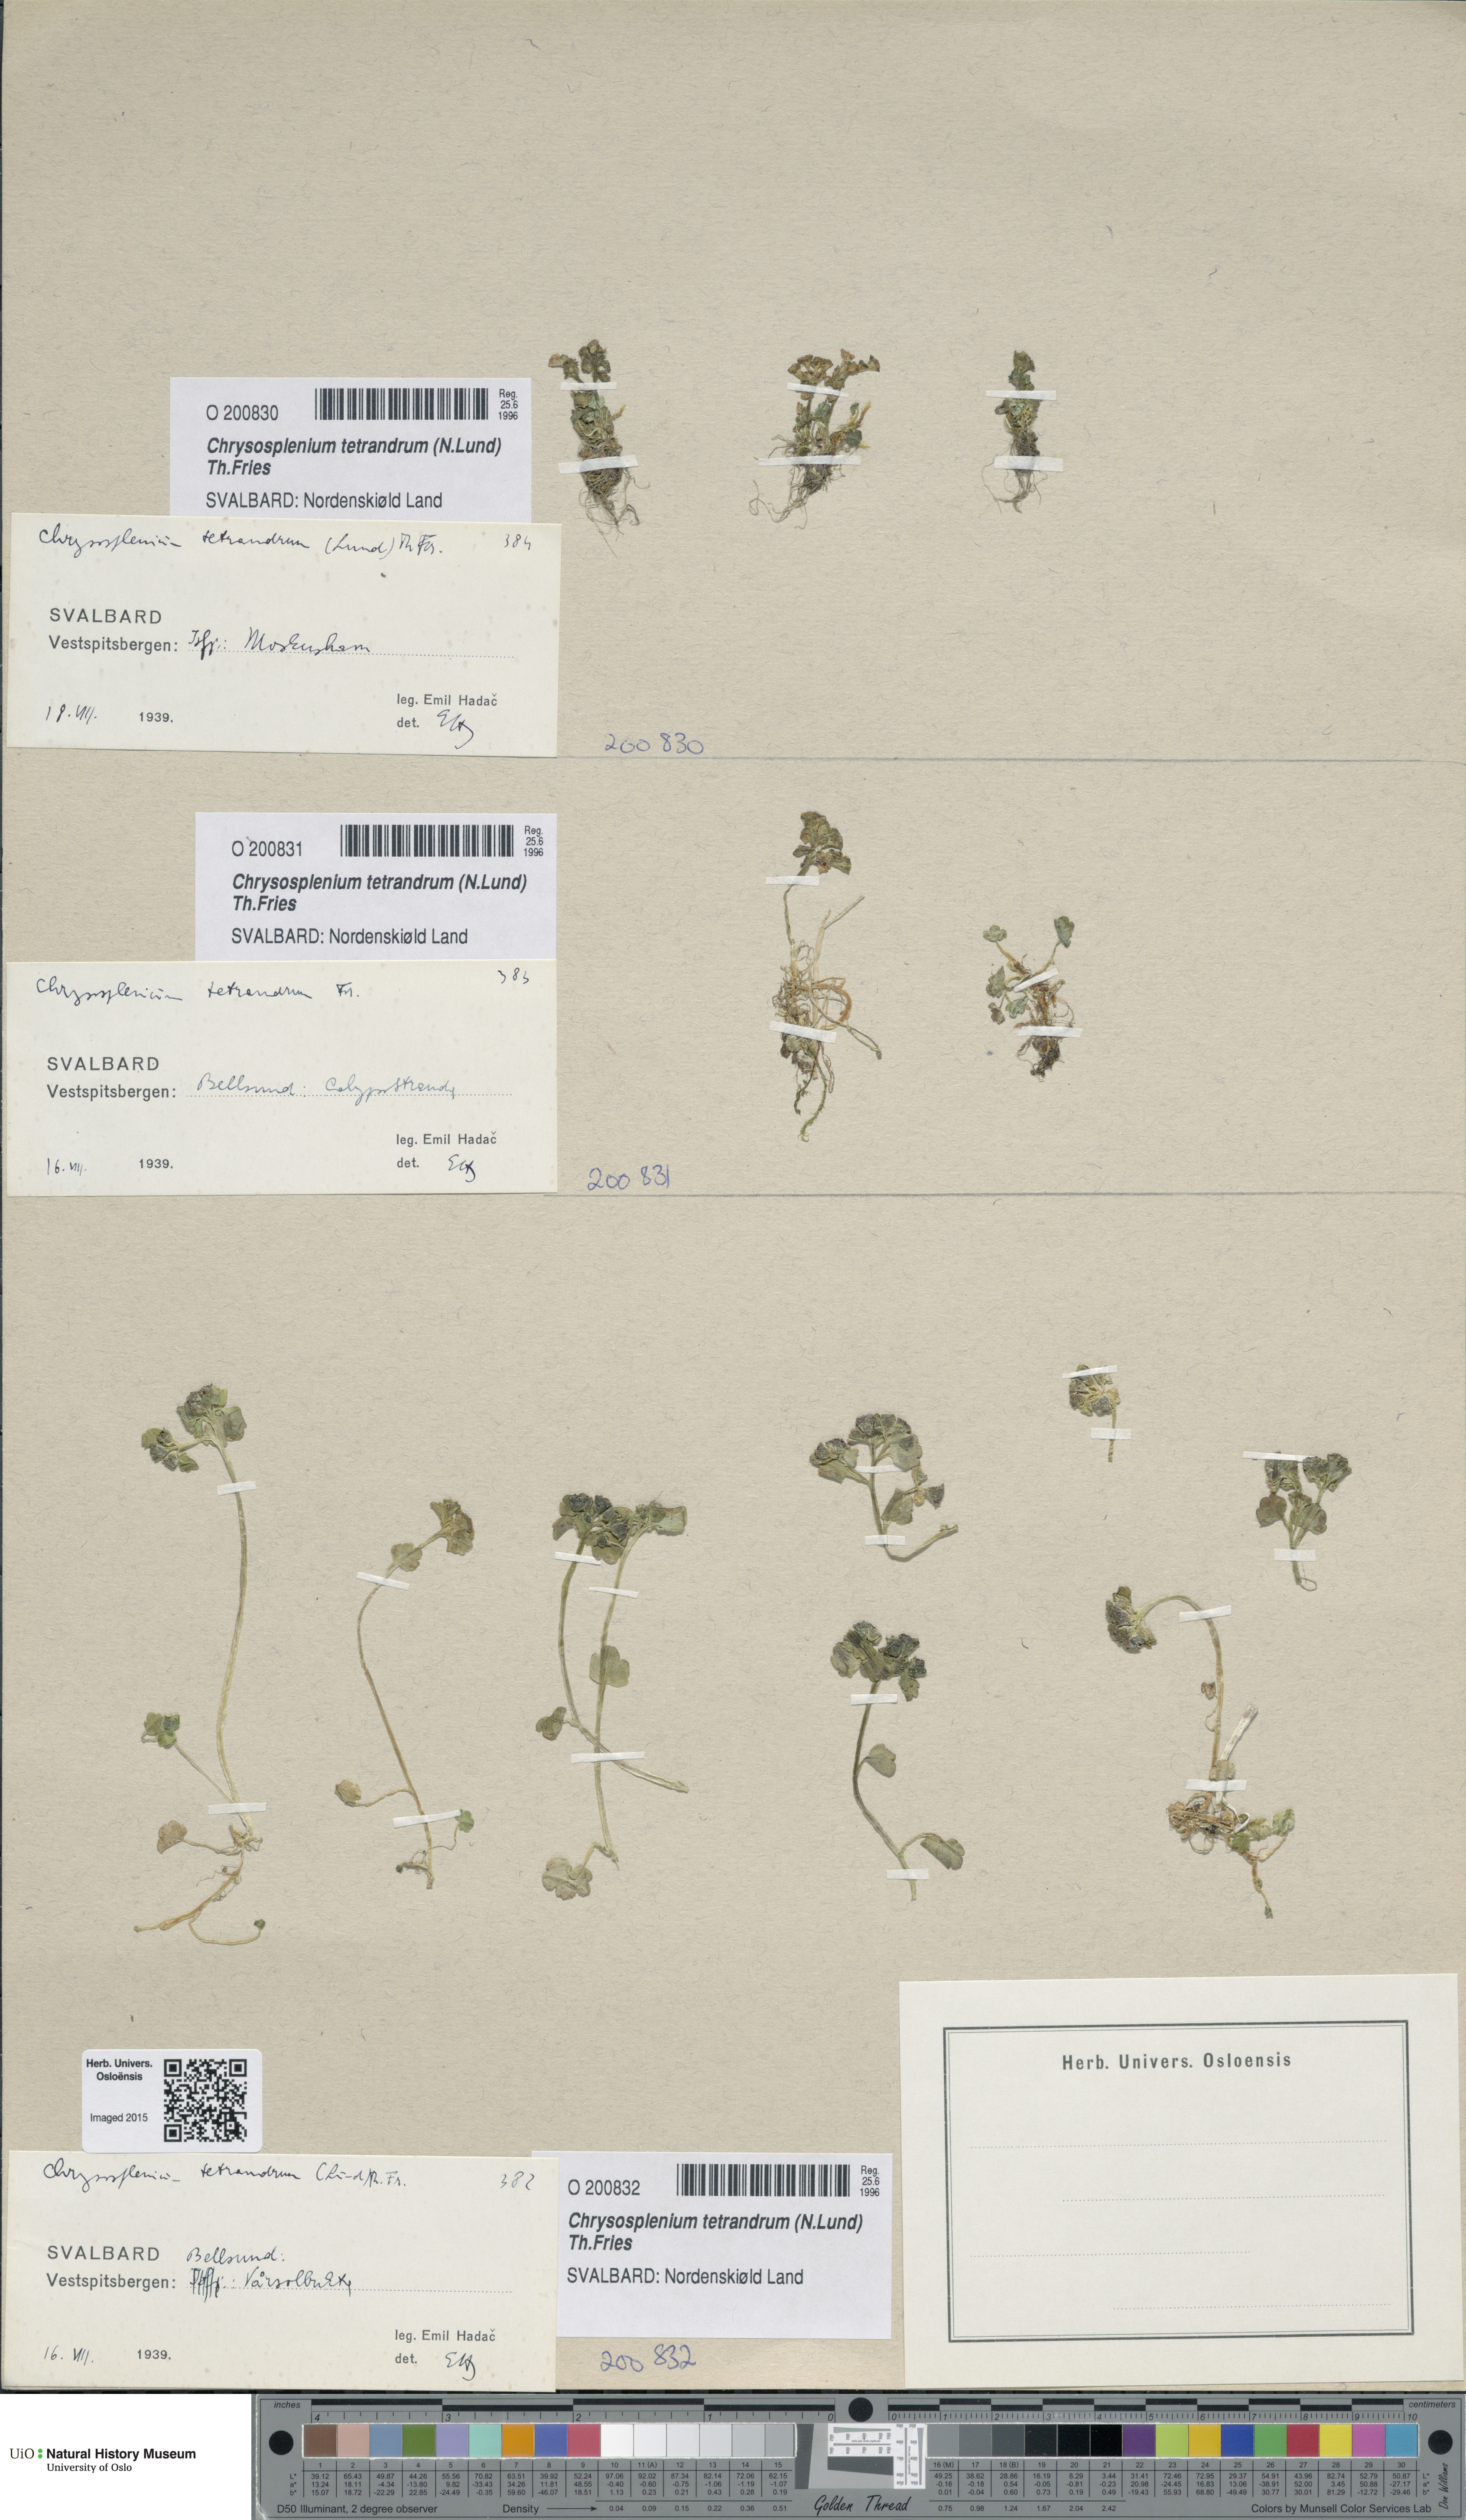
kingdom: Plantae
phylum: Tracheophyta
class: Magnoliopsida
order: Saxifragales
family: Saxifragaceae
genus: Chrysosplenium
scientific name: Chrysosplenium tetrandrum
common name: Green saxifrage
